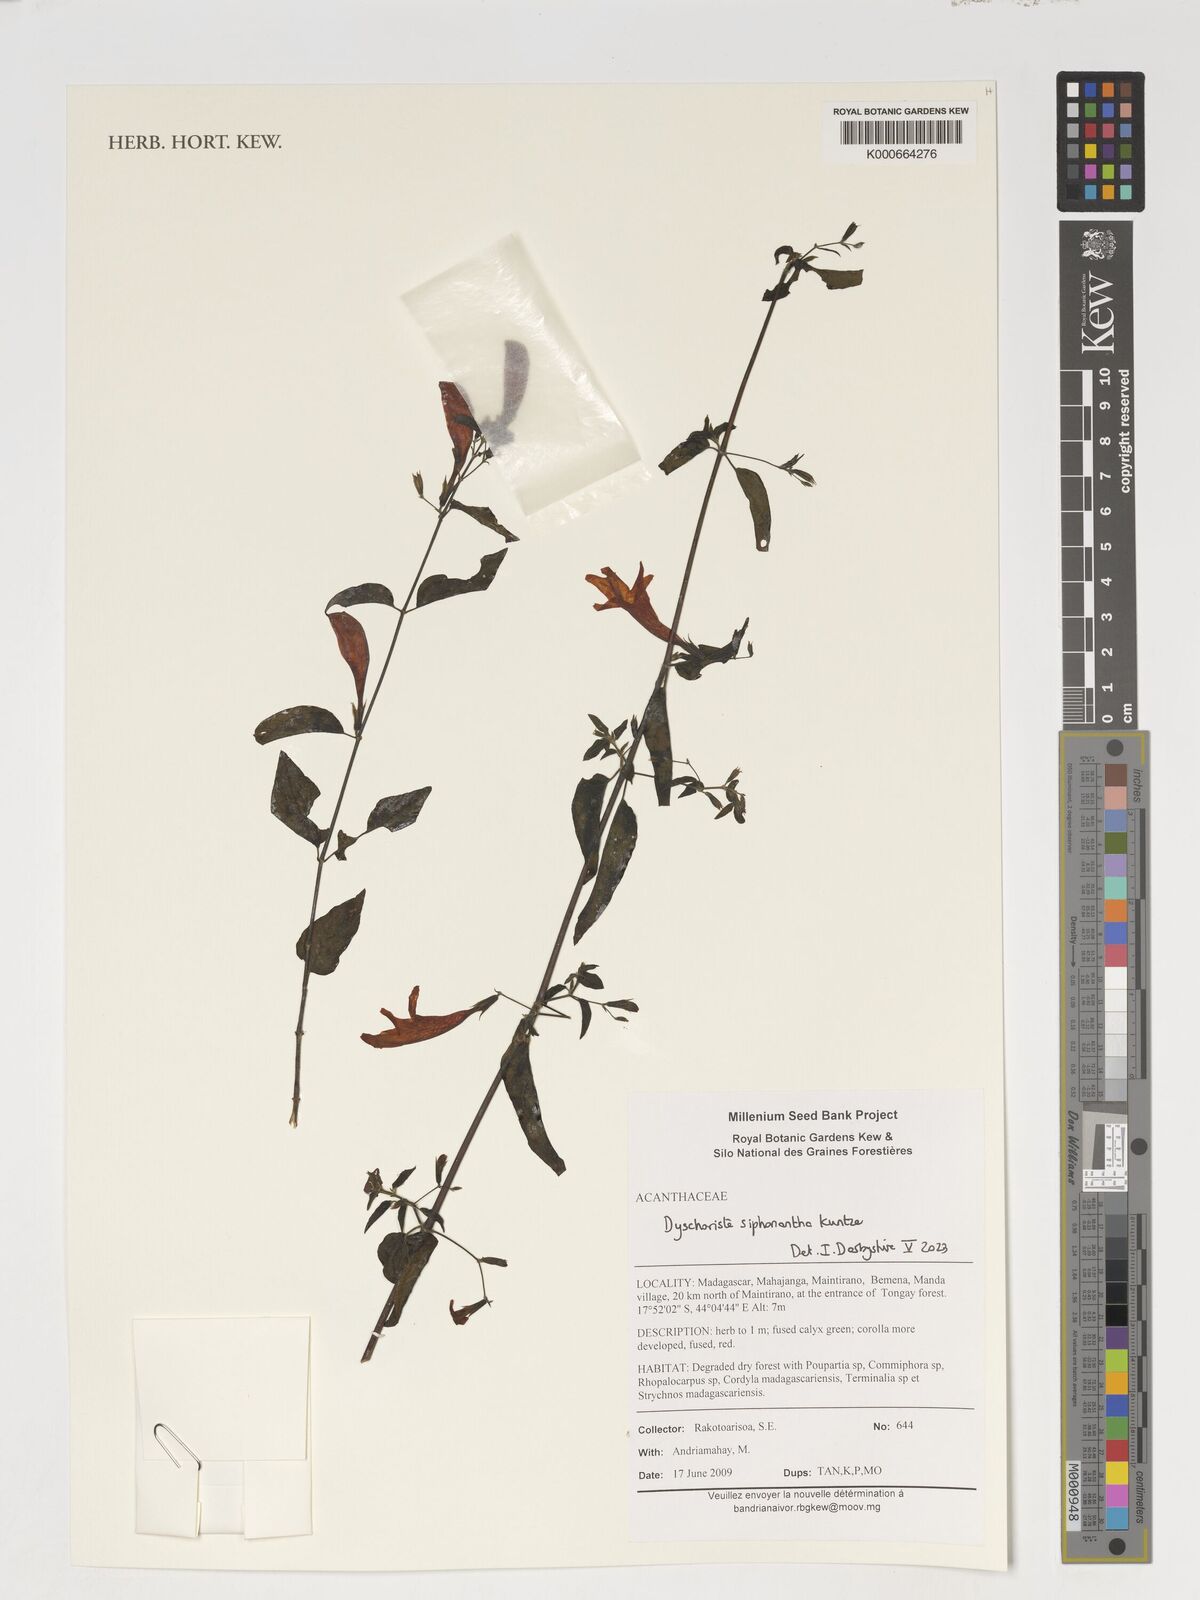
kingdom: Plantae
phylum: Tracheophyta
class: Magnoliopsida
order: Lamiales
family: Acanthaceae
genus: Dyschoriste
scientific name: Dyschoriste siphonantha
